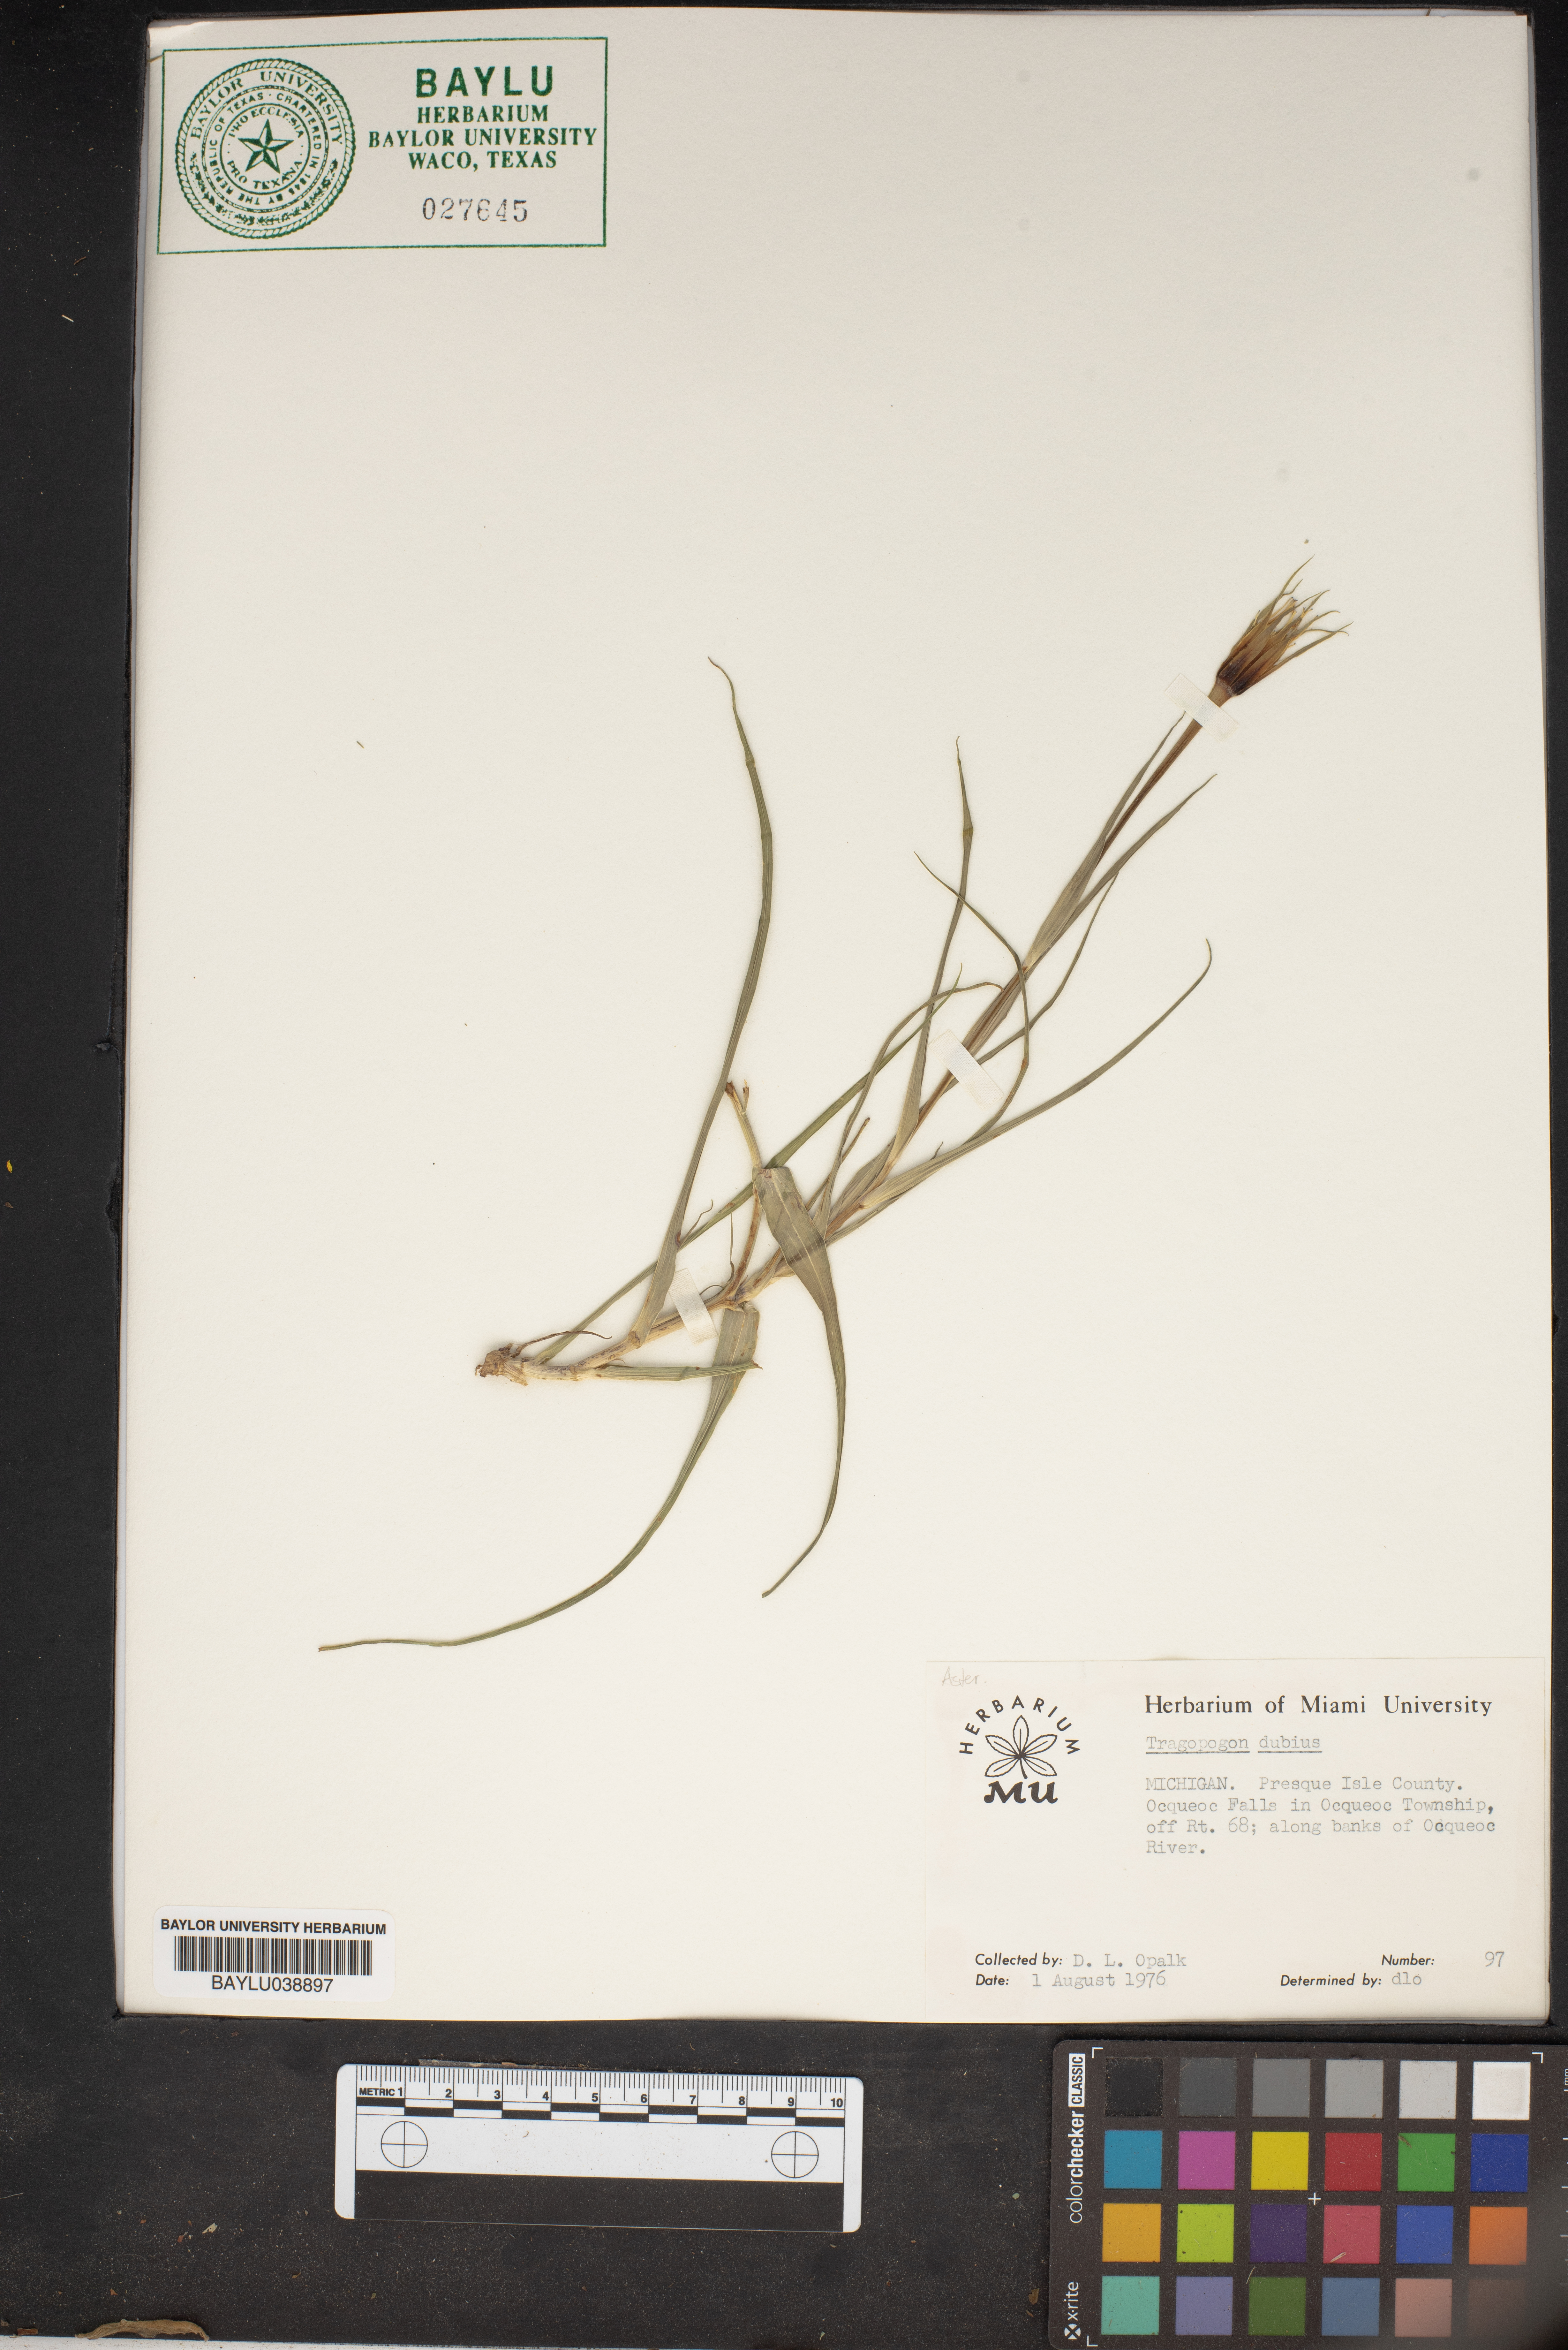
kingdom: Plantae
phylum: Tracheophyta
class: Magnoliopsida
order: Asterales
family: Asteraceae
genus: Tragopogon
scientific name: Tragopogon dubius
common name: Yellow salsify
